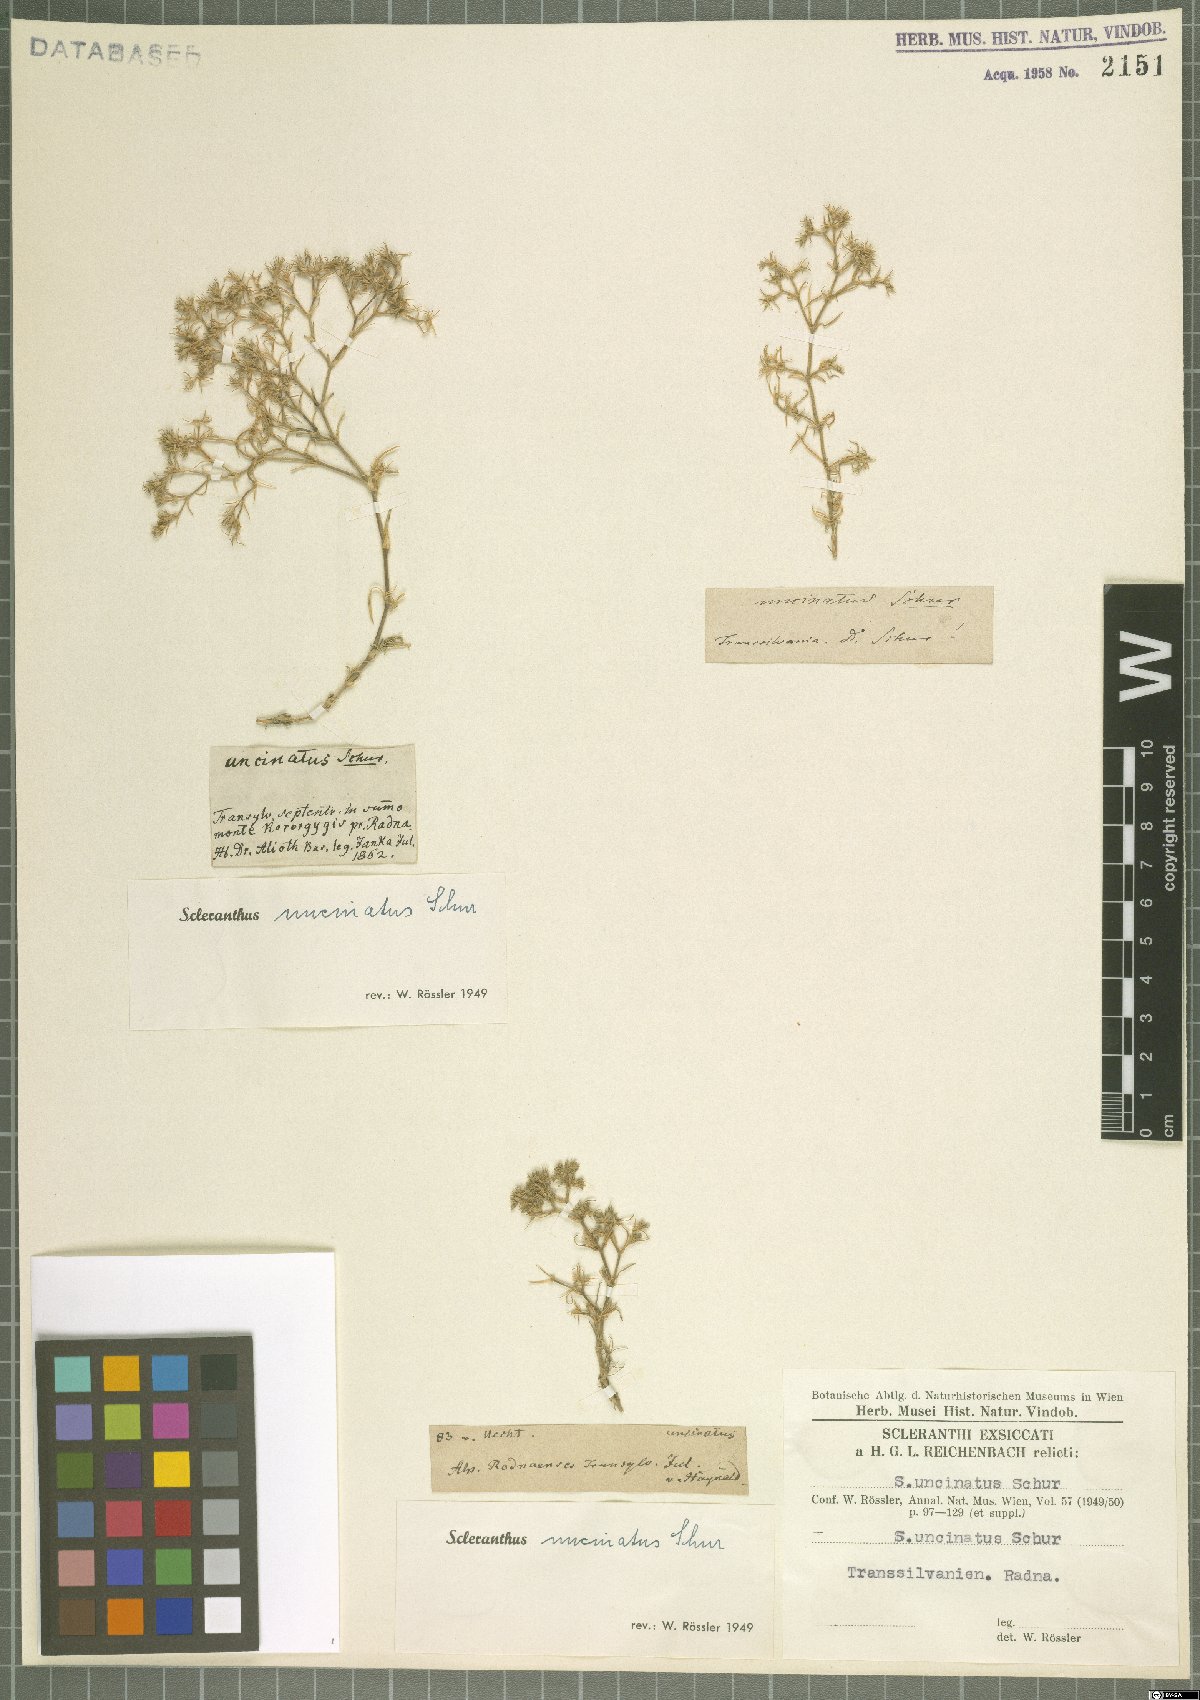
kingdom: Plantae
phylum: Tracheophyta
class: Magnoliopsida
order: Caryophyllales
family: Caryophyllaceae
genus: Scleranthus
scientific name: Scleranthus uncinatus
